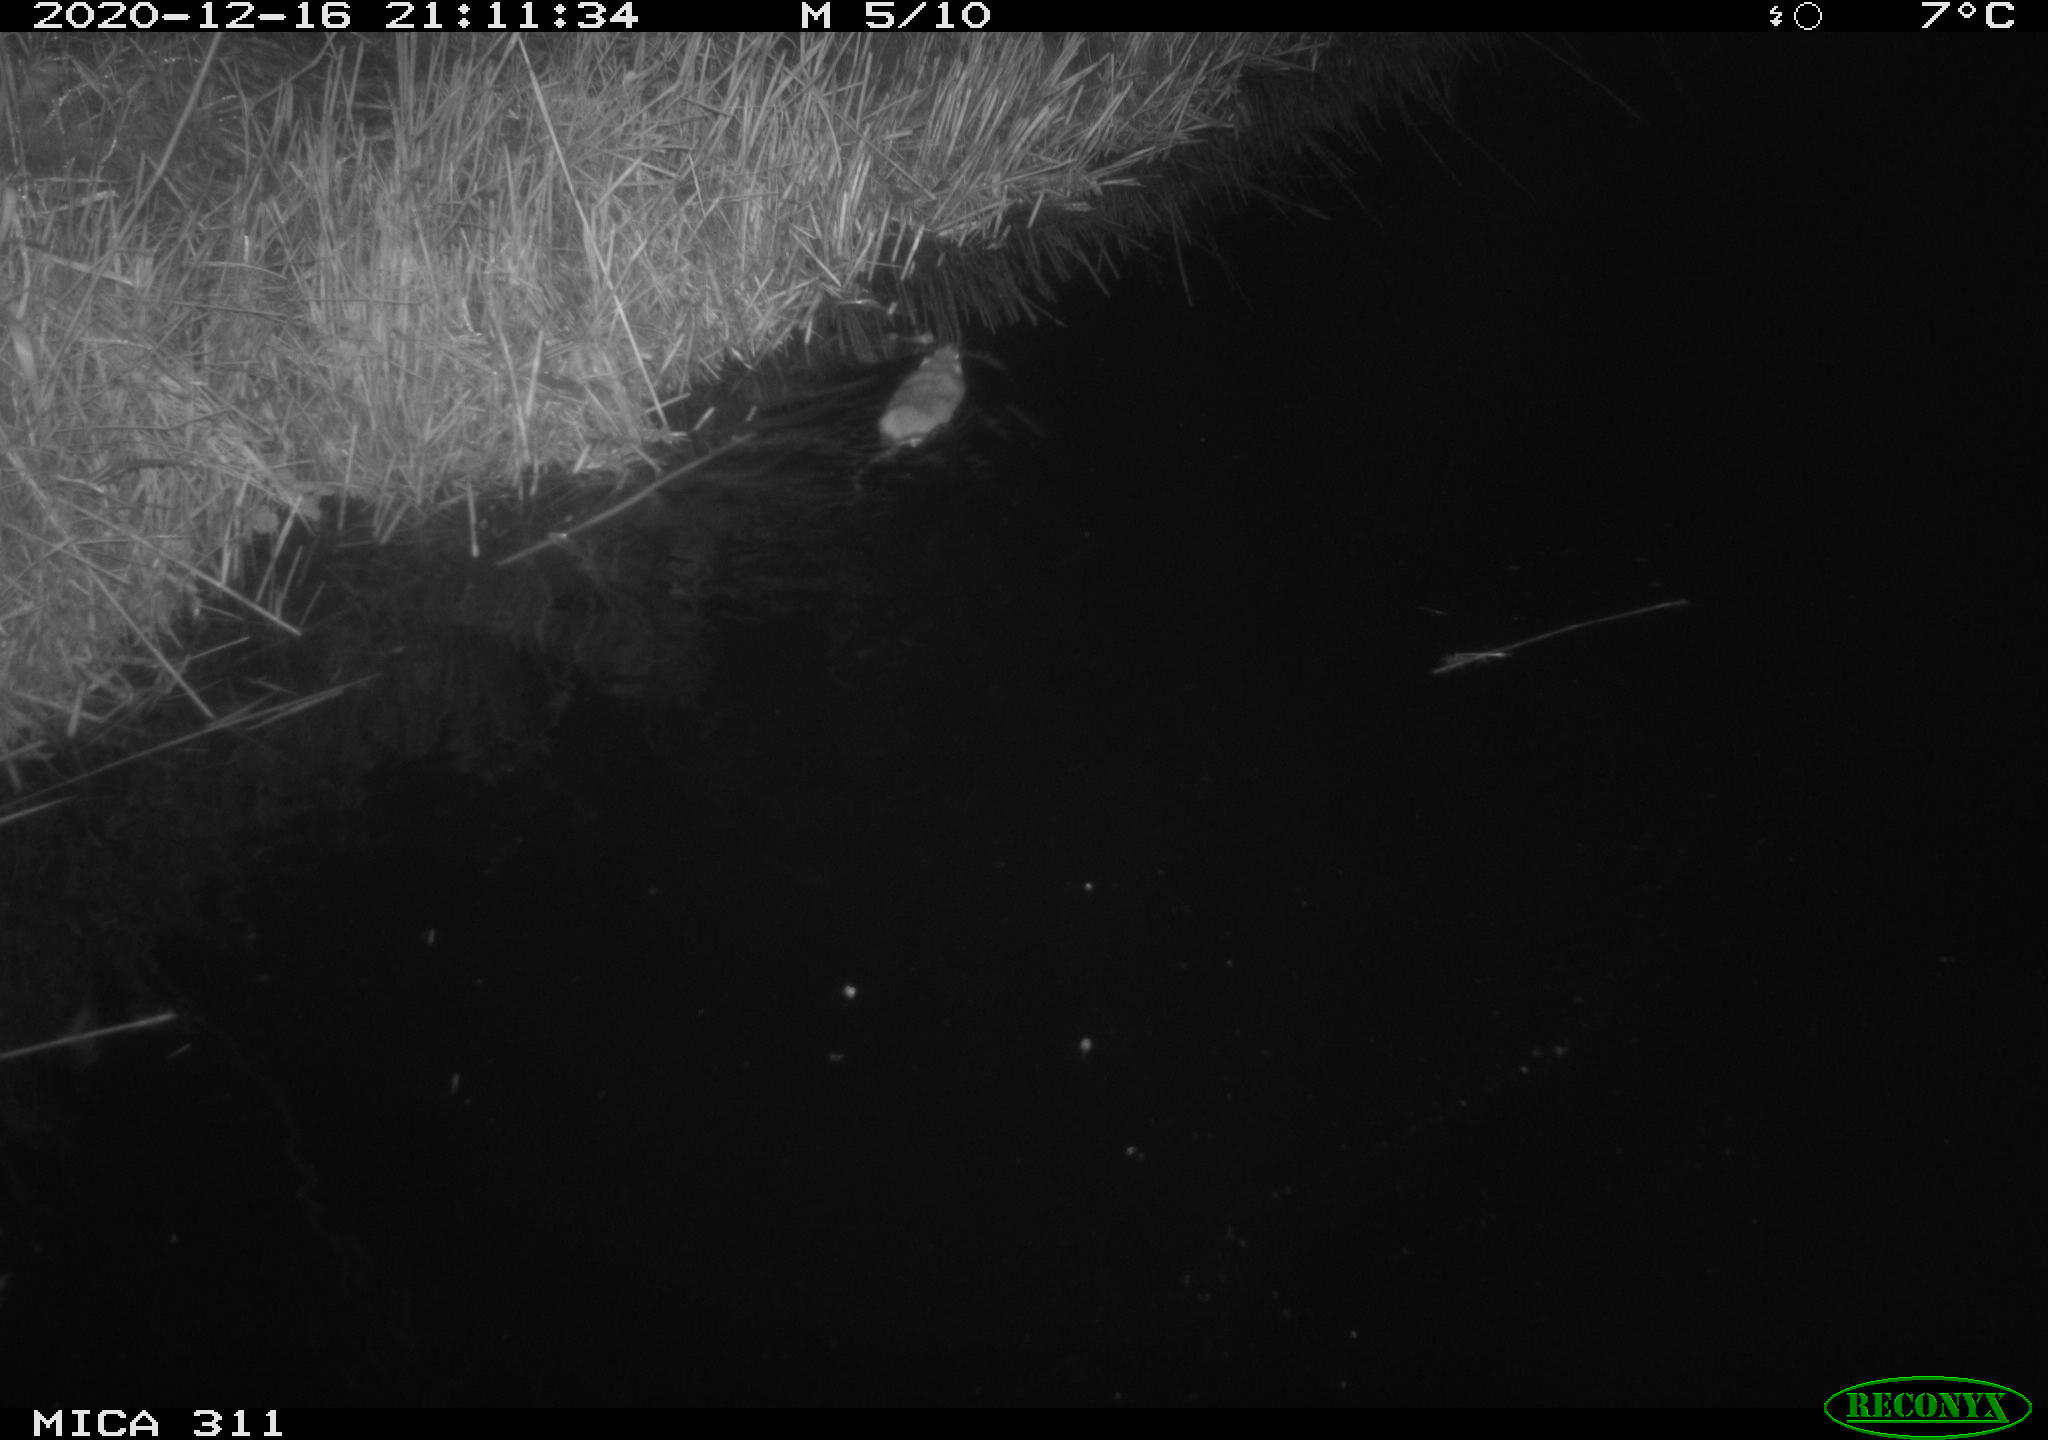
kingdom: Animalia
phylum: Chordata
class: Mammalia
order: Rodentia
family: Muridae
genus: Rattus
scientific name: Rattus norvegicus
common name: Brown rat
